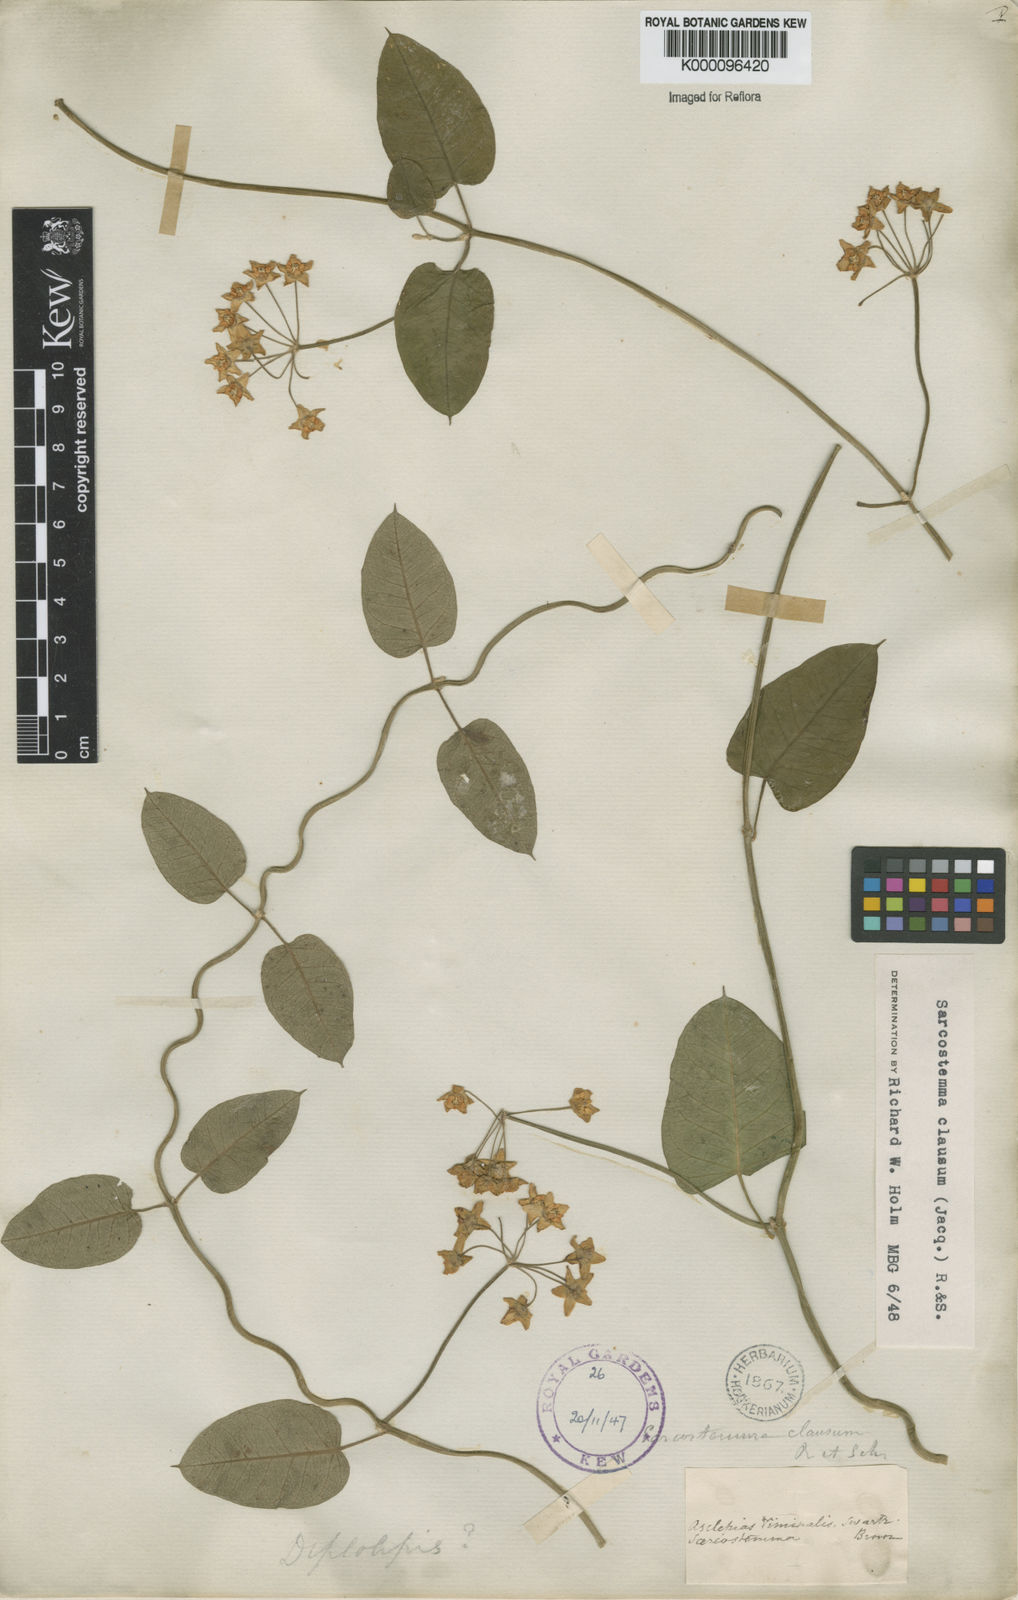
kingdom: Plantae
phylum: Tracheophyta
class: Magnoliopsida
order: Gentianales
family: Apocynaceae
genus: Funastrum
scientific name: Funastrum clausum
